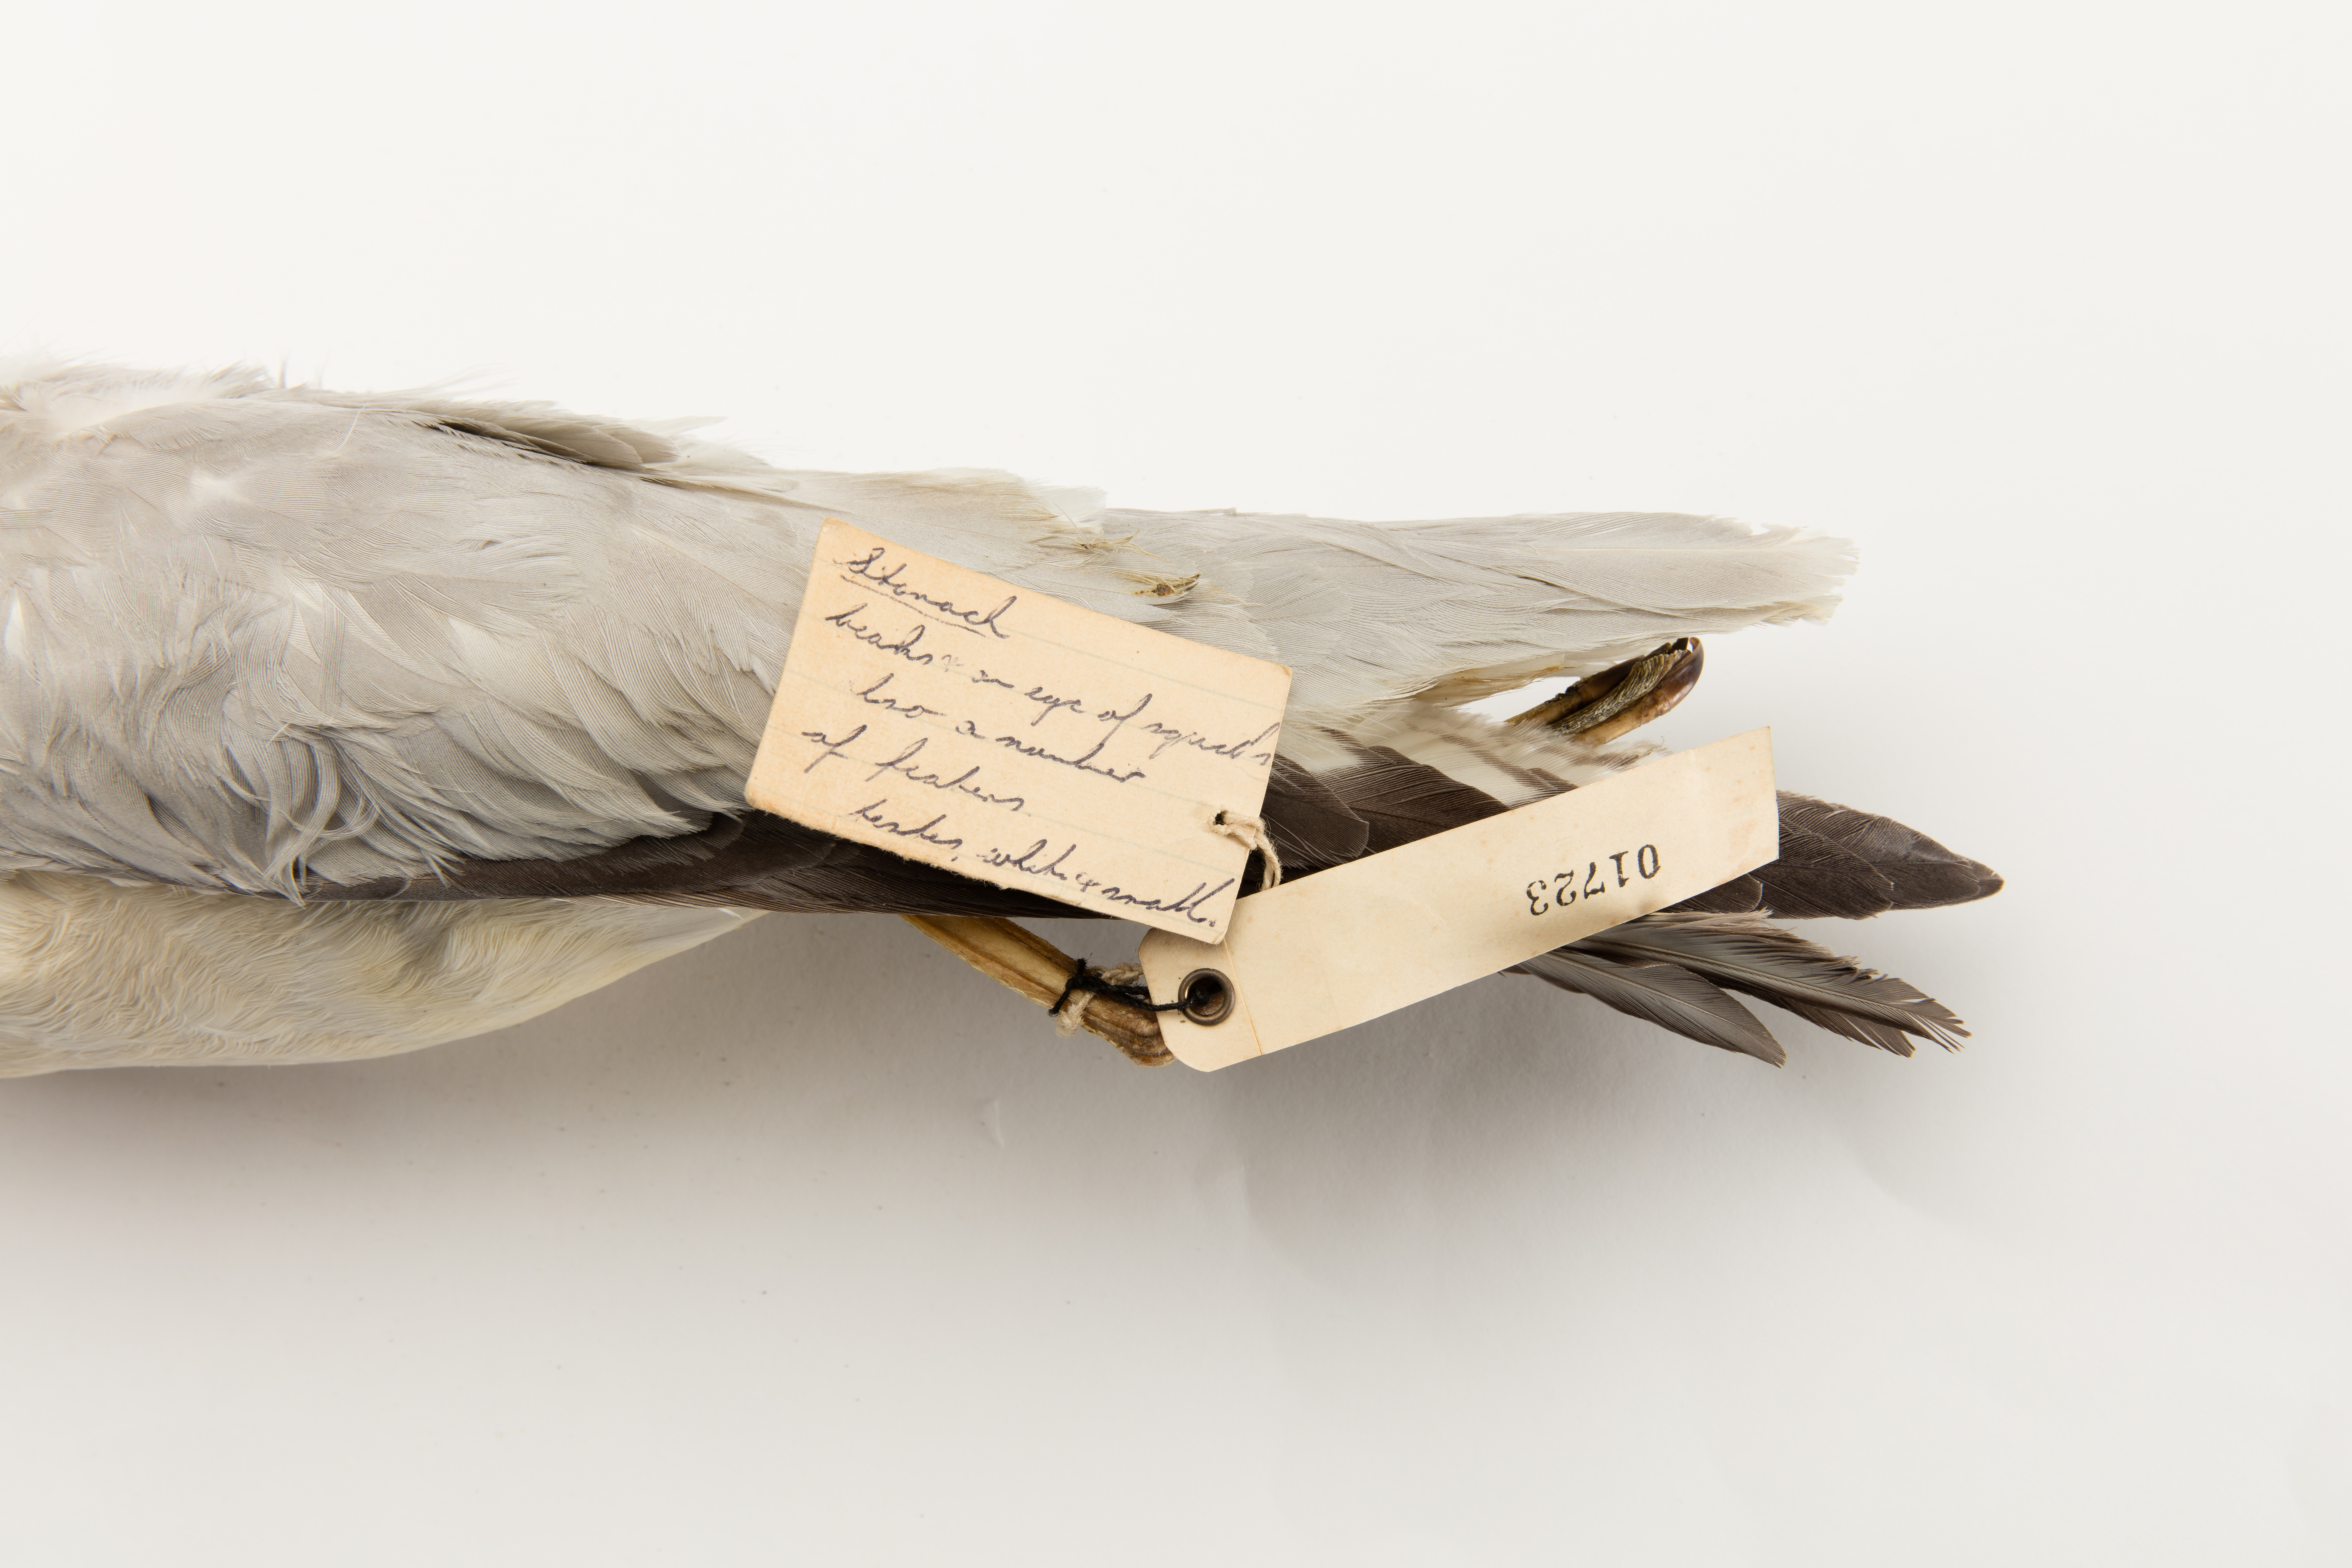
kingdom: Animalia
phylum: Chordata
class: Aves
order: Procellariiformes
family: Procellariidae
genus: Fulmarus
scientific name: Fulmarus glacialoides
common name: Southern fulmar
